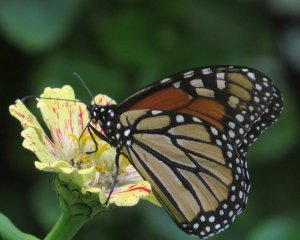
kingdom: Animalia
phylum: Arthropoda
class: Insecta
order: Lepidoptera
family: Nymphalidae
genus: Danaus
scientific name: Danaus plexippus
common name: Monarch
